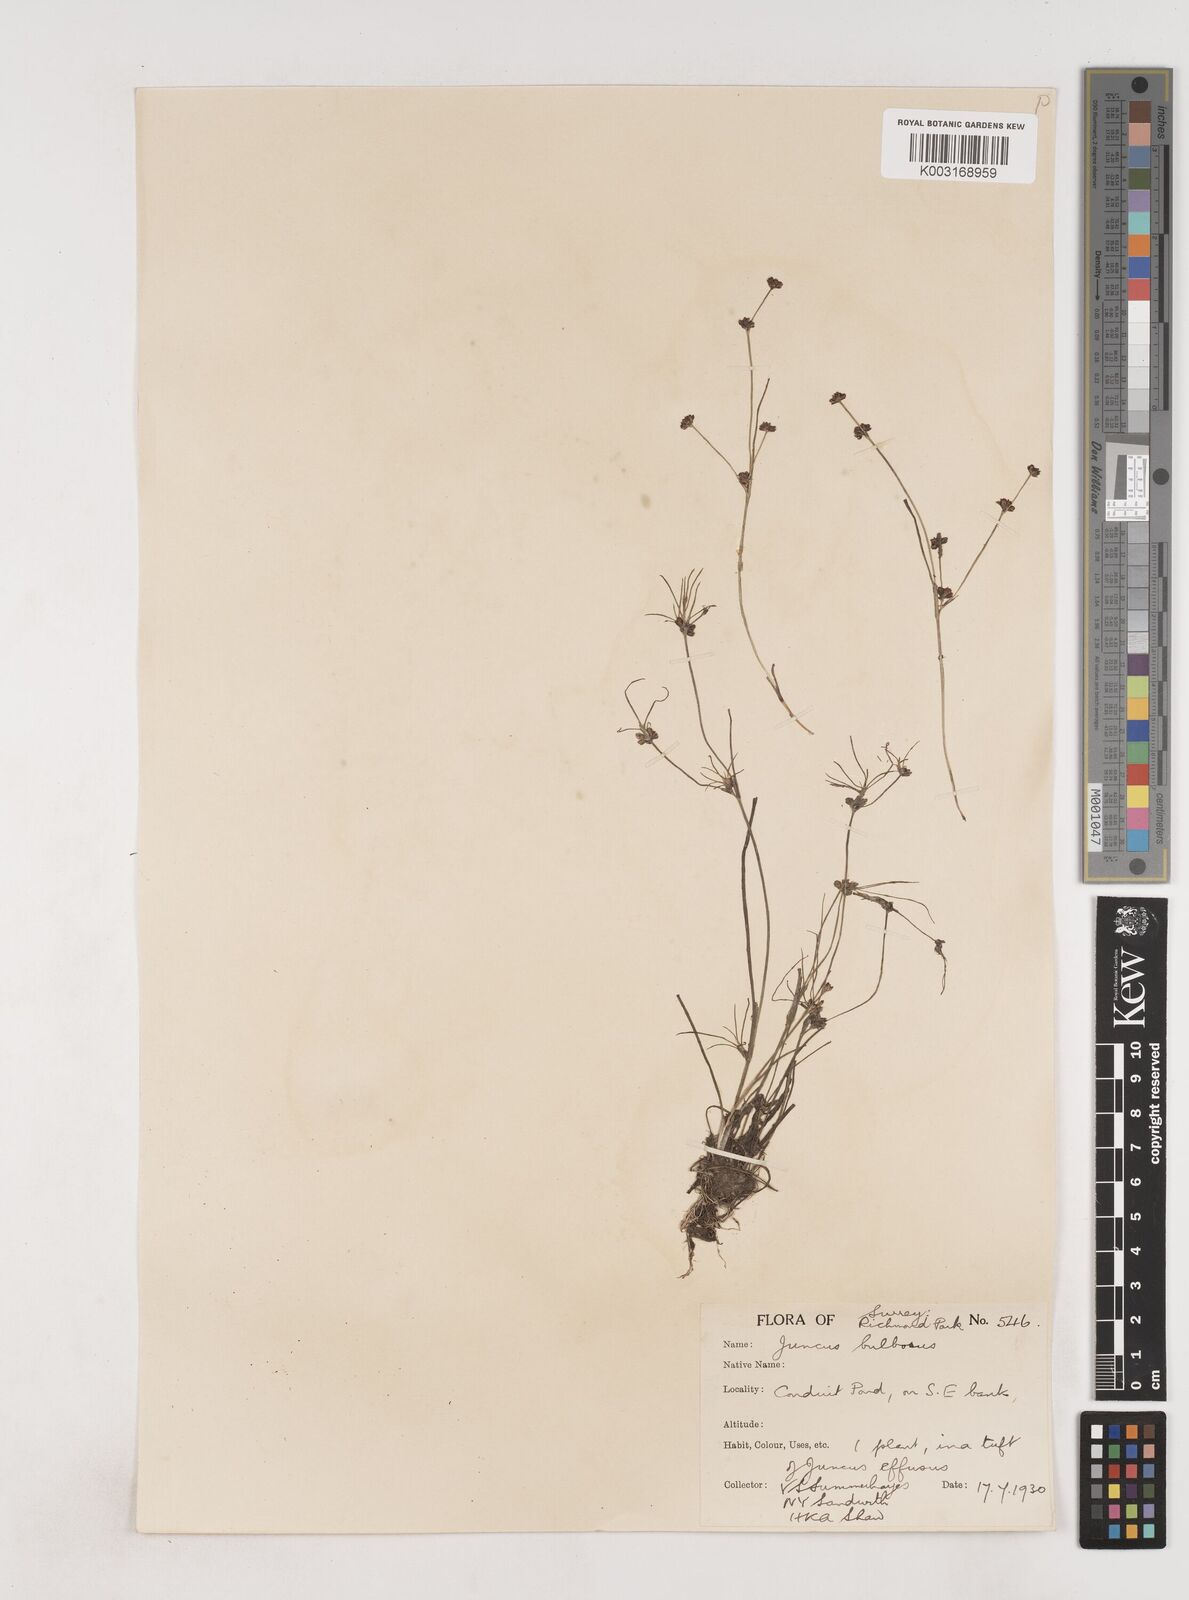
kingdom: Plantae
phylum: Tracheophyta
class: Liliopsida
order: Poales
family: Juncaceae
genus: Juncus
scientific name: Juncus bulbosus
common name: Bulbous rush
